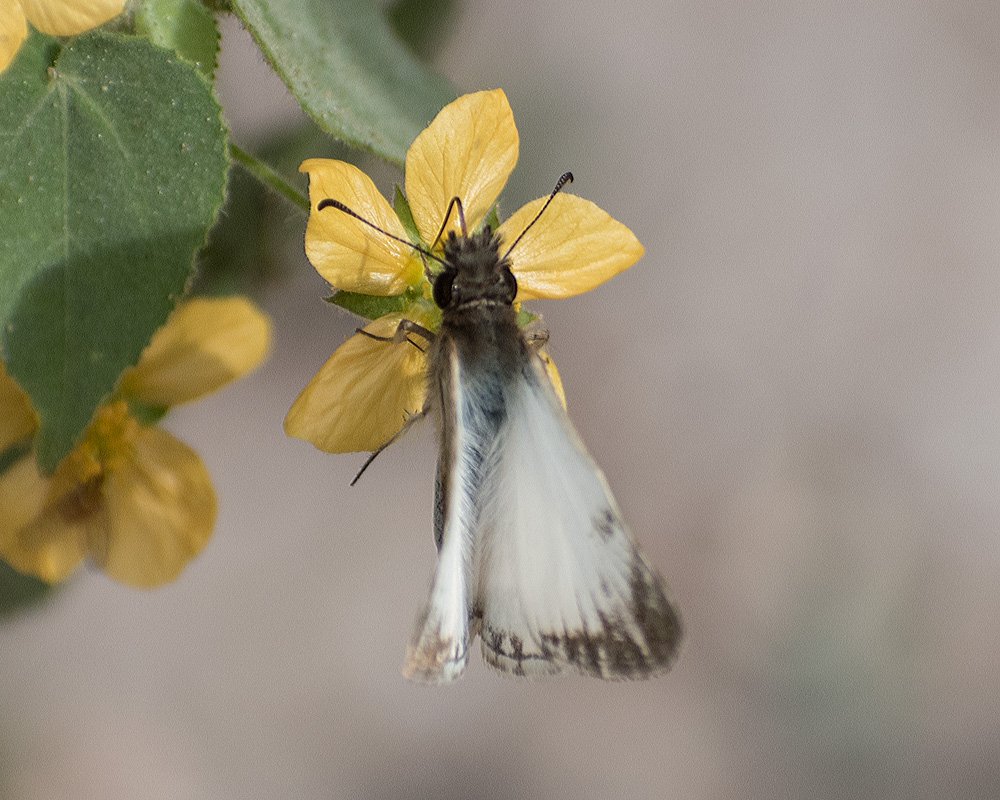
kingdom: Animalia
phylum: Arthropoda
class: Insecta
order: Lepidoptera
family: Hesperiidae
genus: Heliopetes
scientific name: Heliopetes macaira
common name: Turk's-cap White-Skipper
